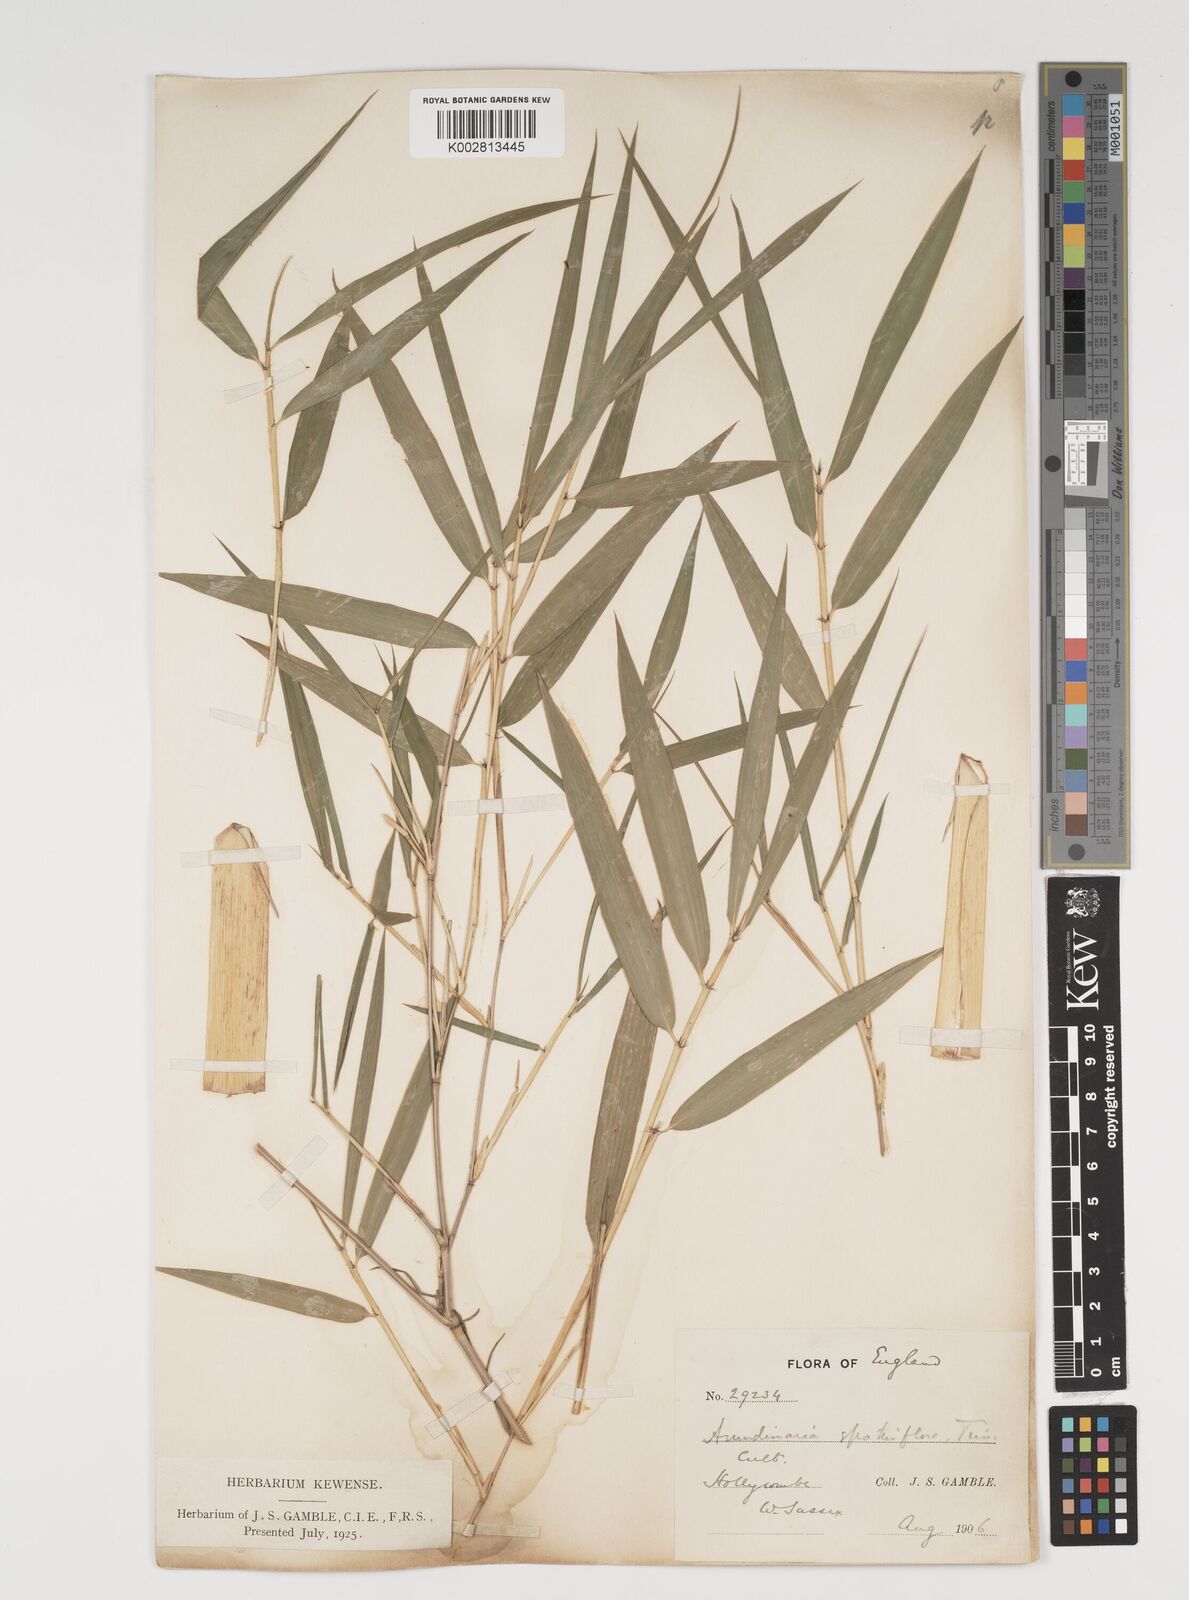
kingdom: Plantae
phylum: Tracheophyta
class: Liliopsida
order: Poales
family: Poaceae
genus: Thamnocalamus
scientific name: Thamnocalamus spathiflorus
